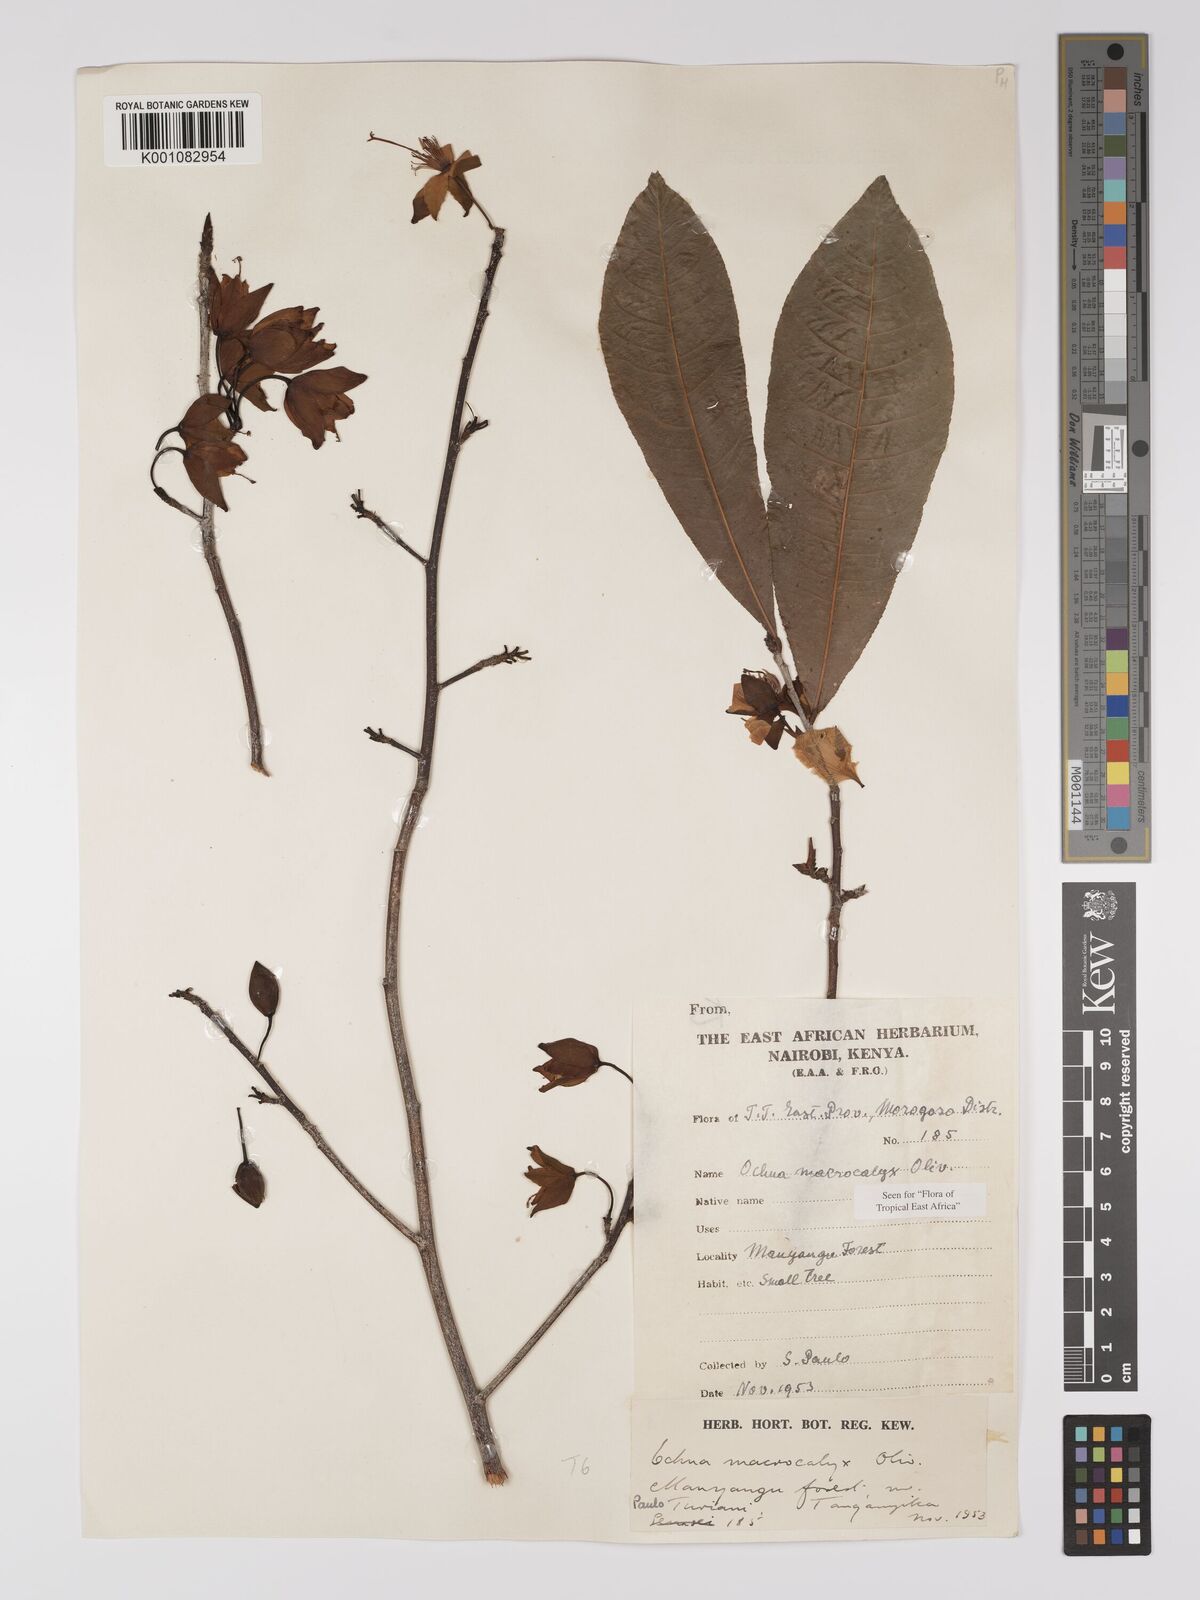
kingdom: Plantae
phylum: Tracheophyta
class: Magnoliopsida
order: Malpighiales
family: Ochnaceae
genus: Ochna
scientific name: Ochna macrocalyx
